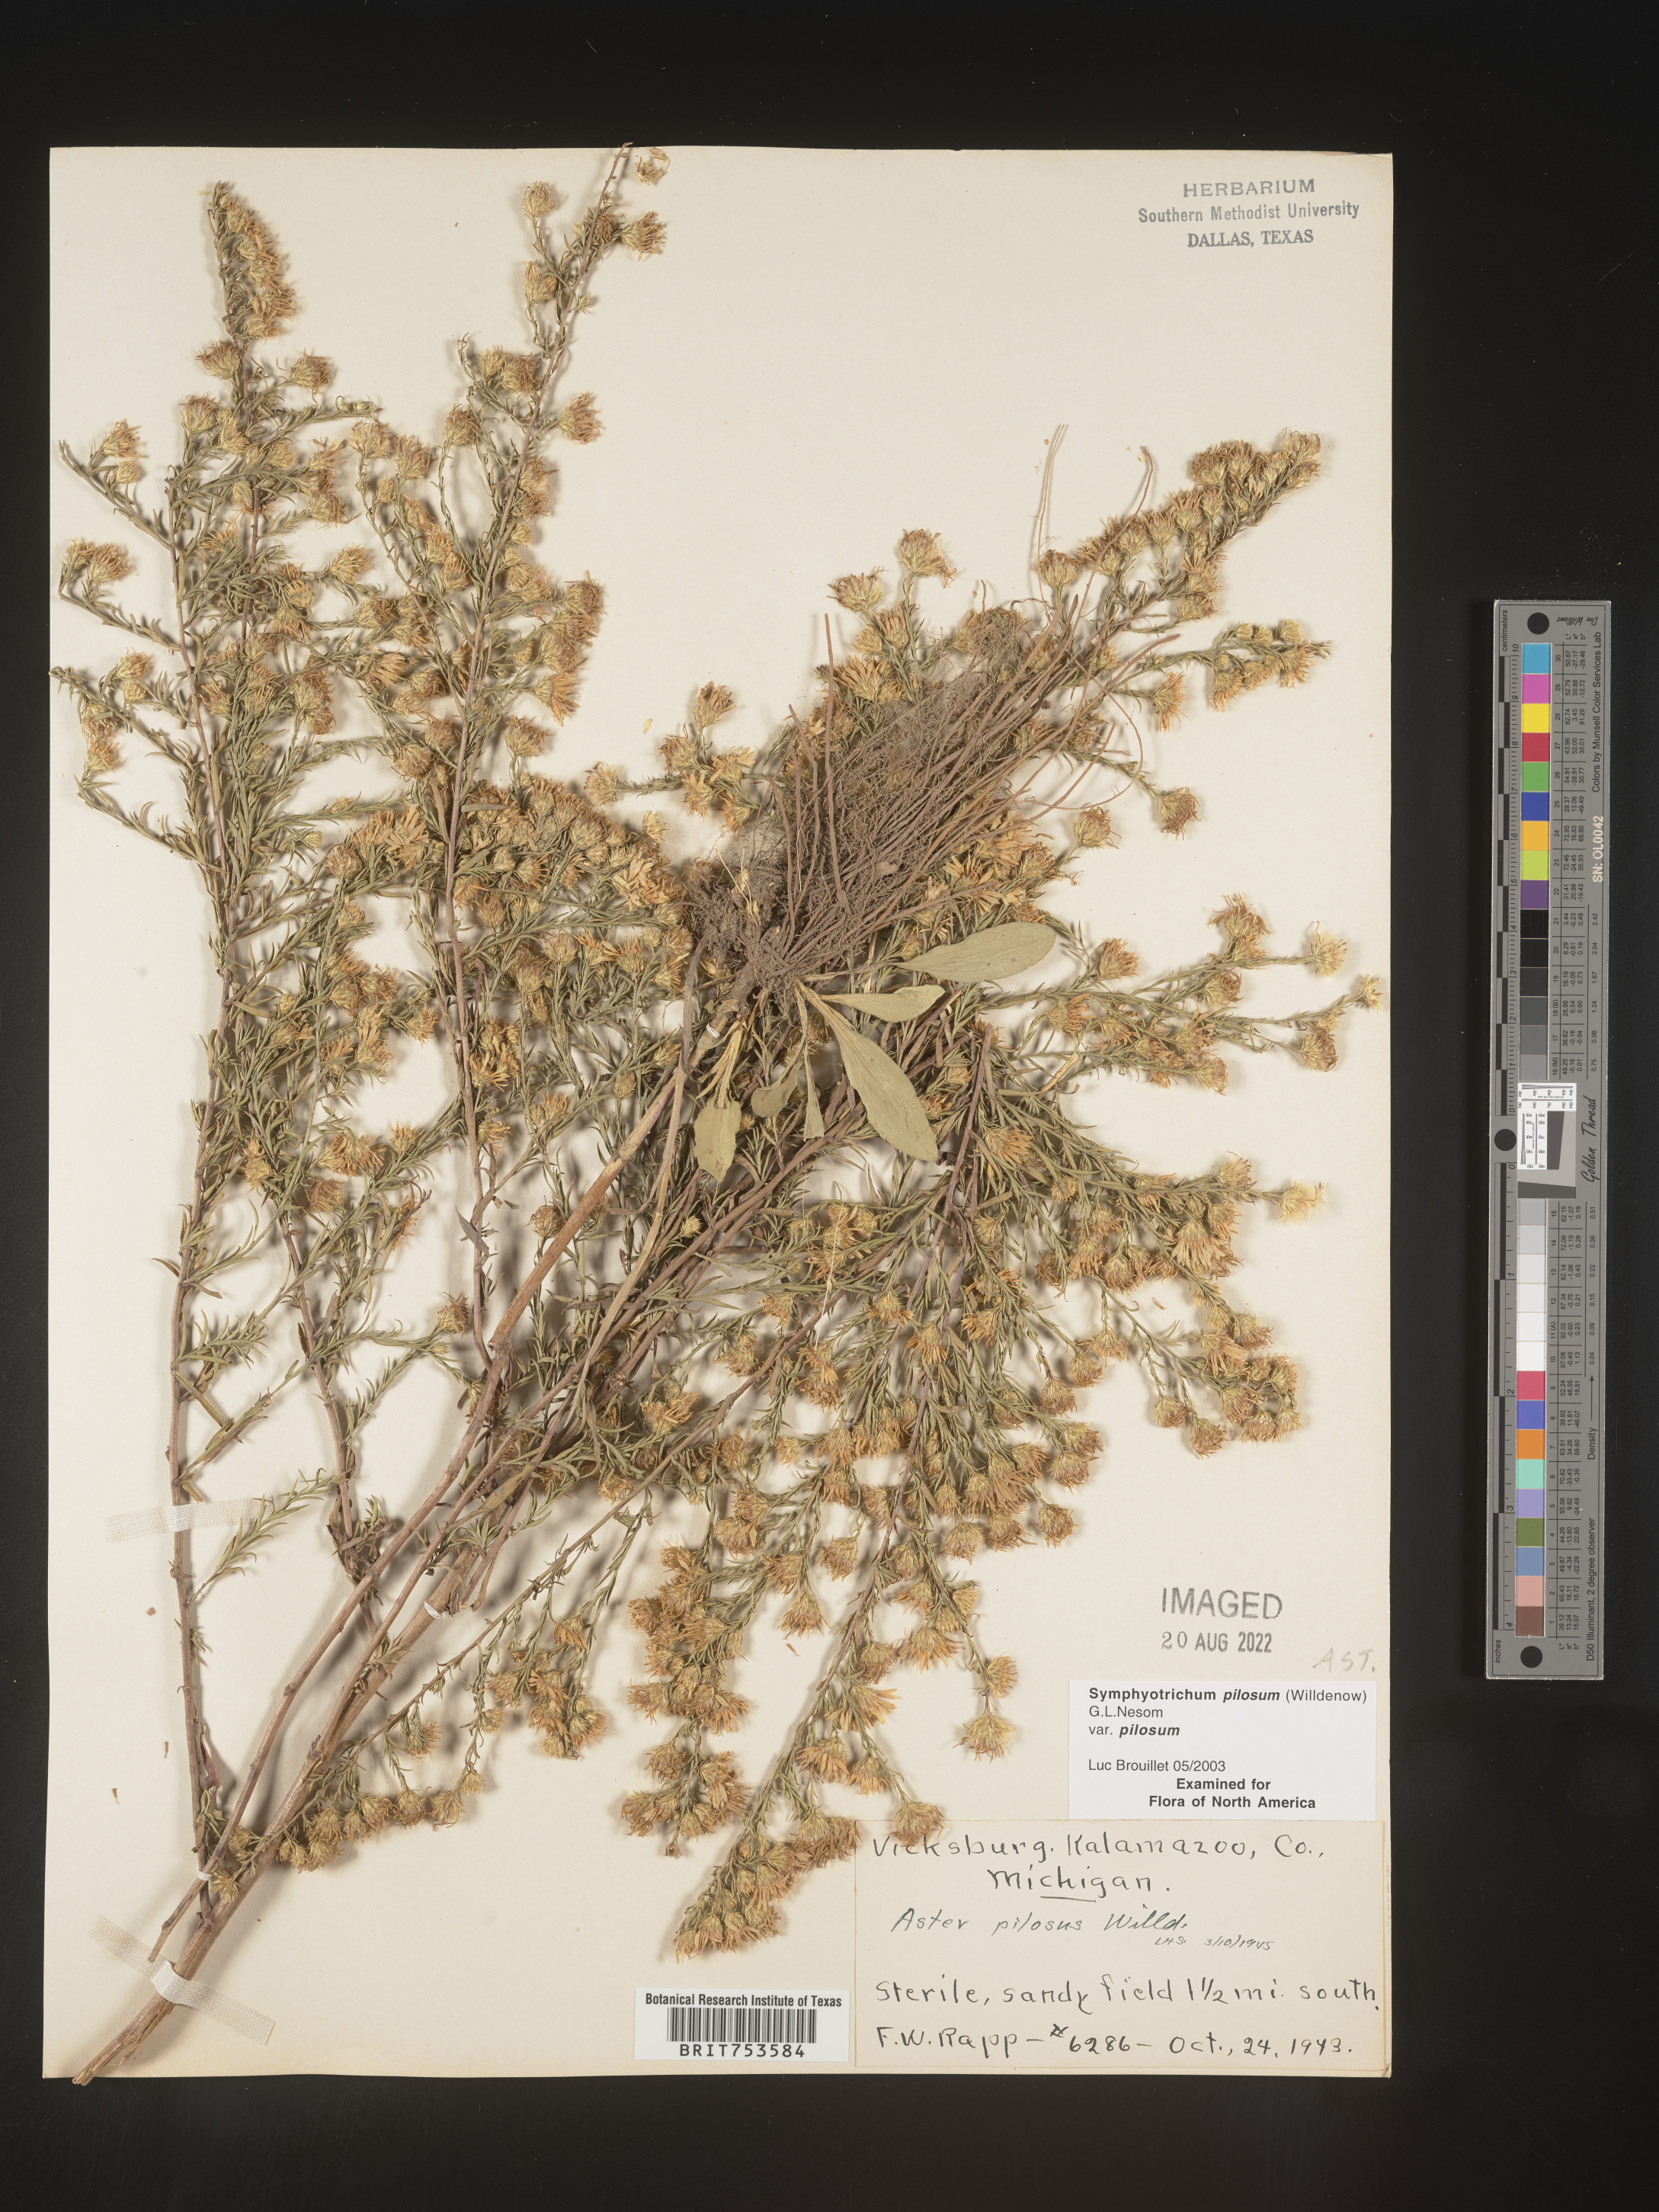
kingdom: Plantae
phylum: Tracheophyta
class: Magnoliopsida
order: Asterales
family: Asteraceae
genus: Symphyotrichum
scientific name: Symphyotrichum pilosum
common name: Awl aster
